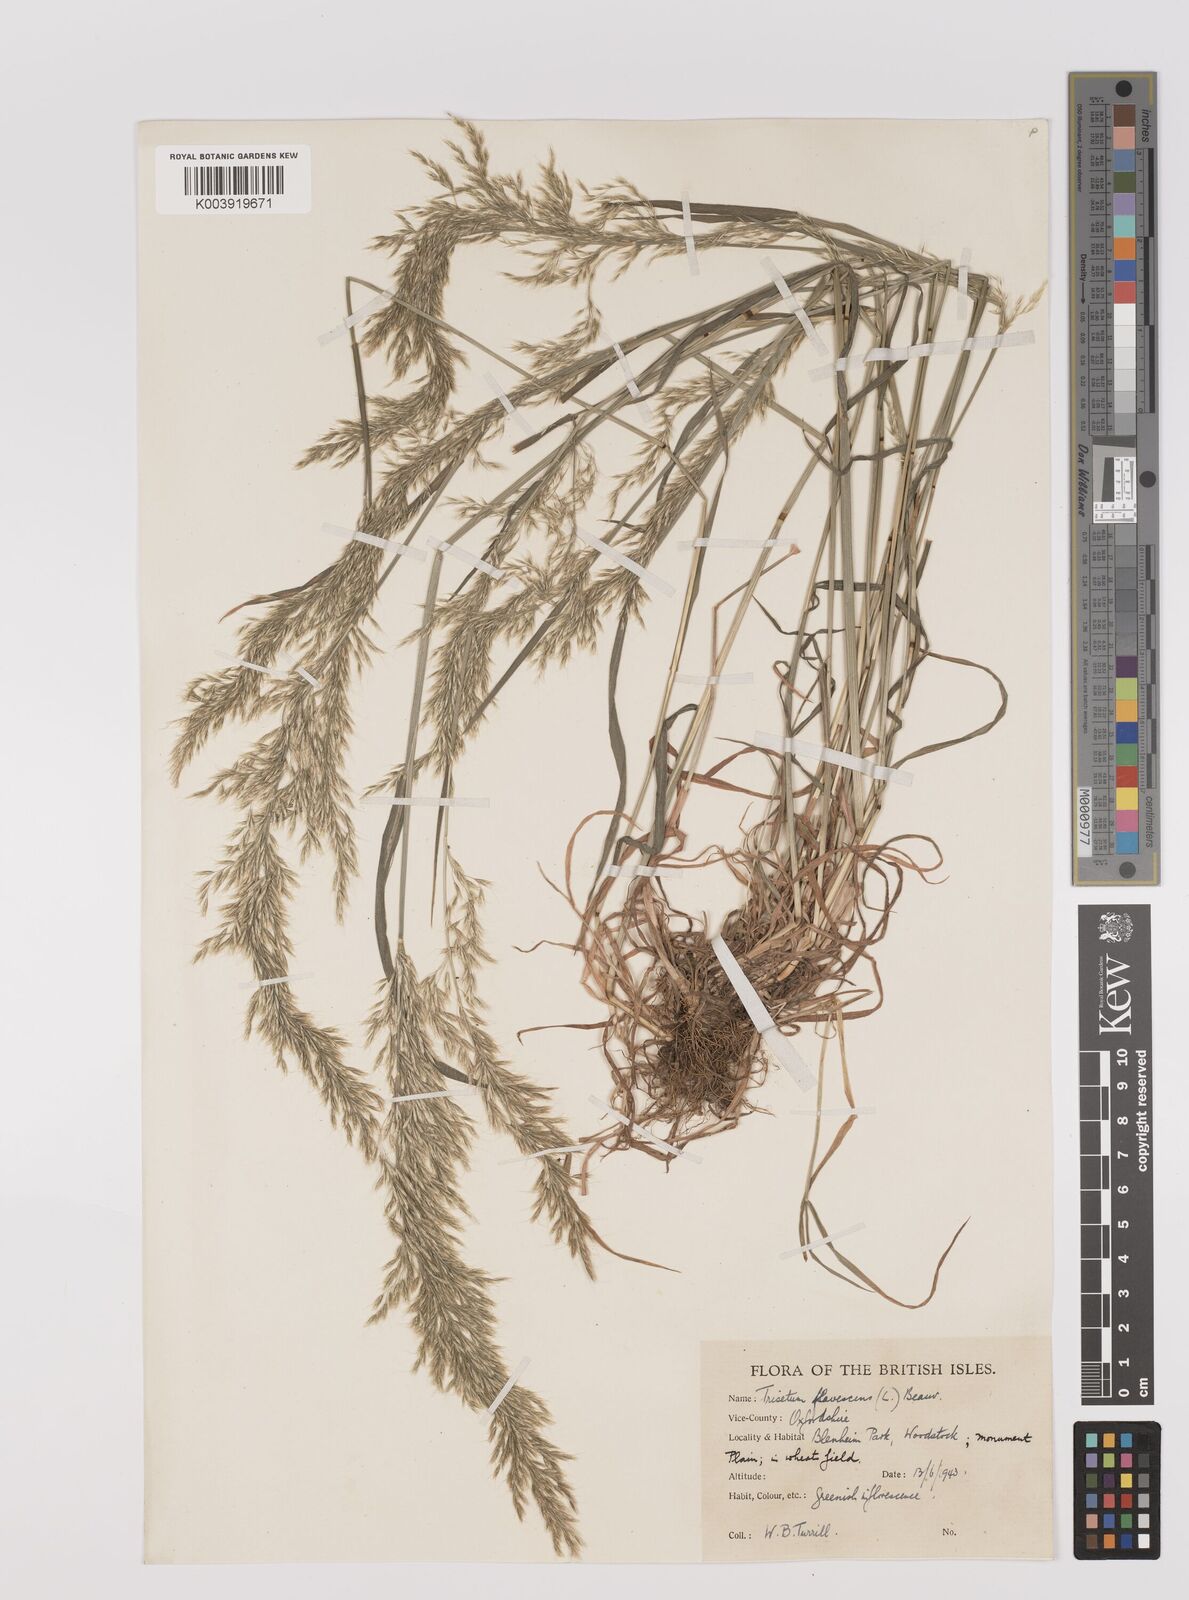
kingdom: Plantae
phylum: Tracheophyta
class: Liliopsida
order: Poales
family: Poaceae
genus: Trisetum
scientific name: Trisetum flavescens
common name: Yellow oat-grass
